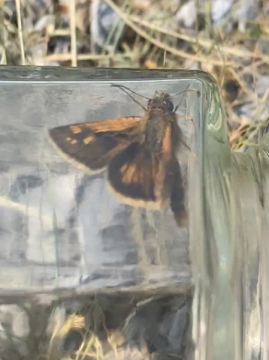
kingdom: Animalia
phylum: Arthropoda
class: Insecta
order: Lepidoptera
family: Hesperiidae
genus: Polites
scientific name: Polites themistocles
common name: Tawny-edged Skipper
